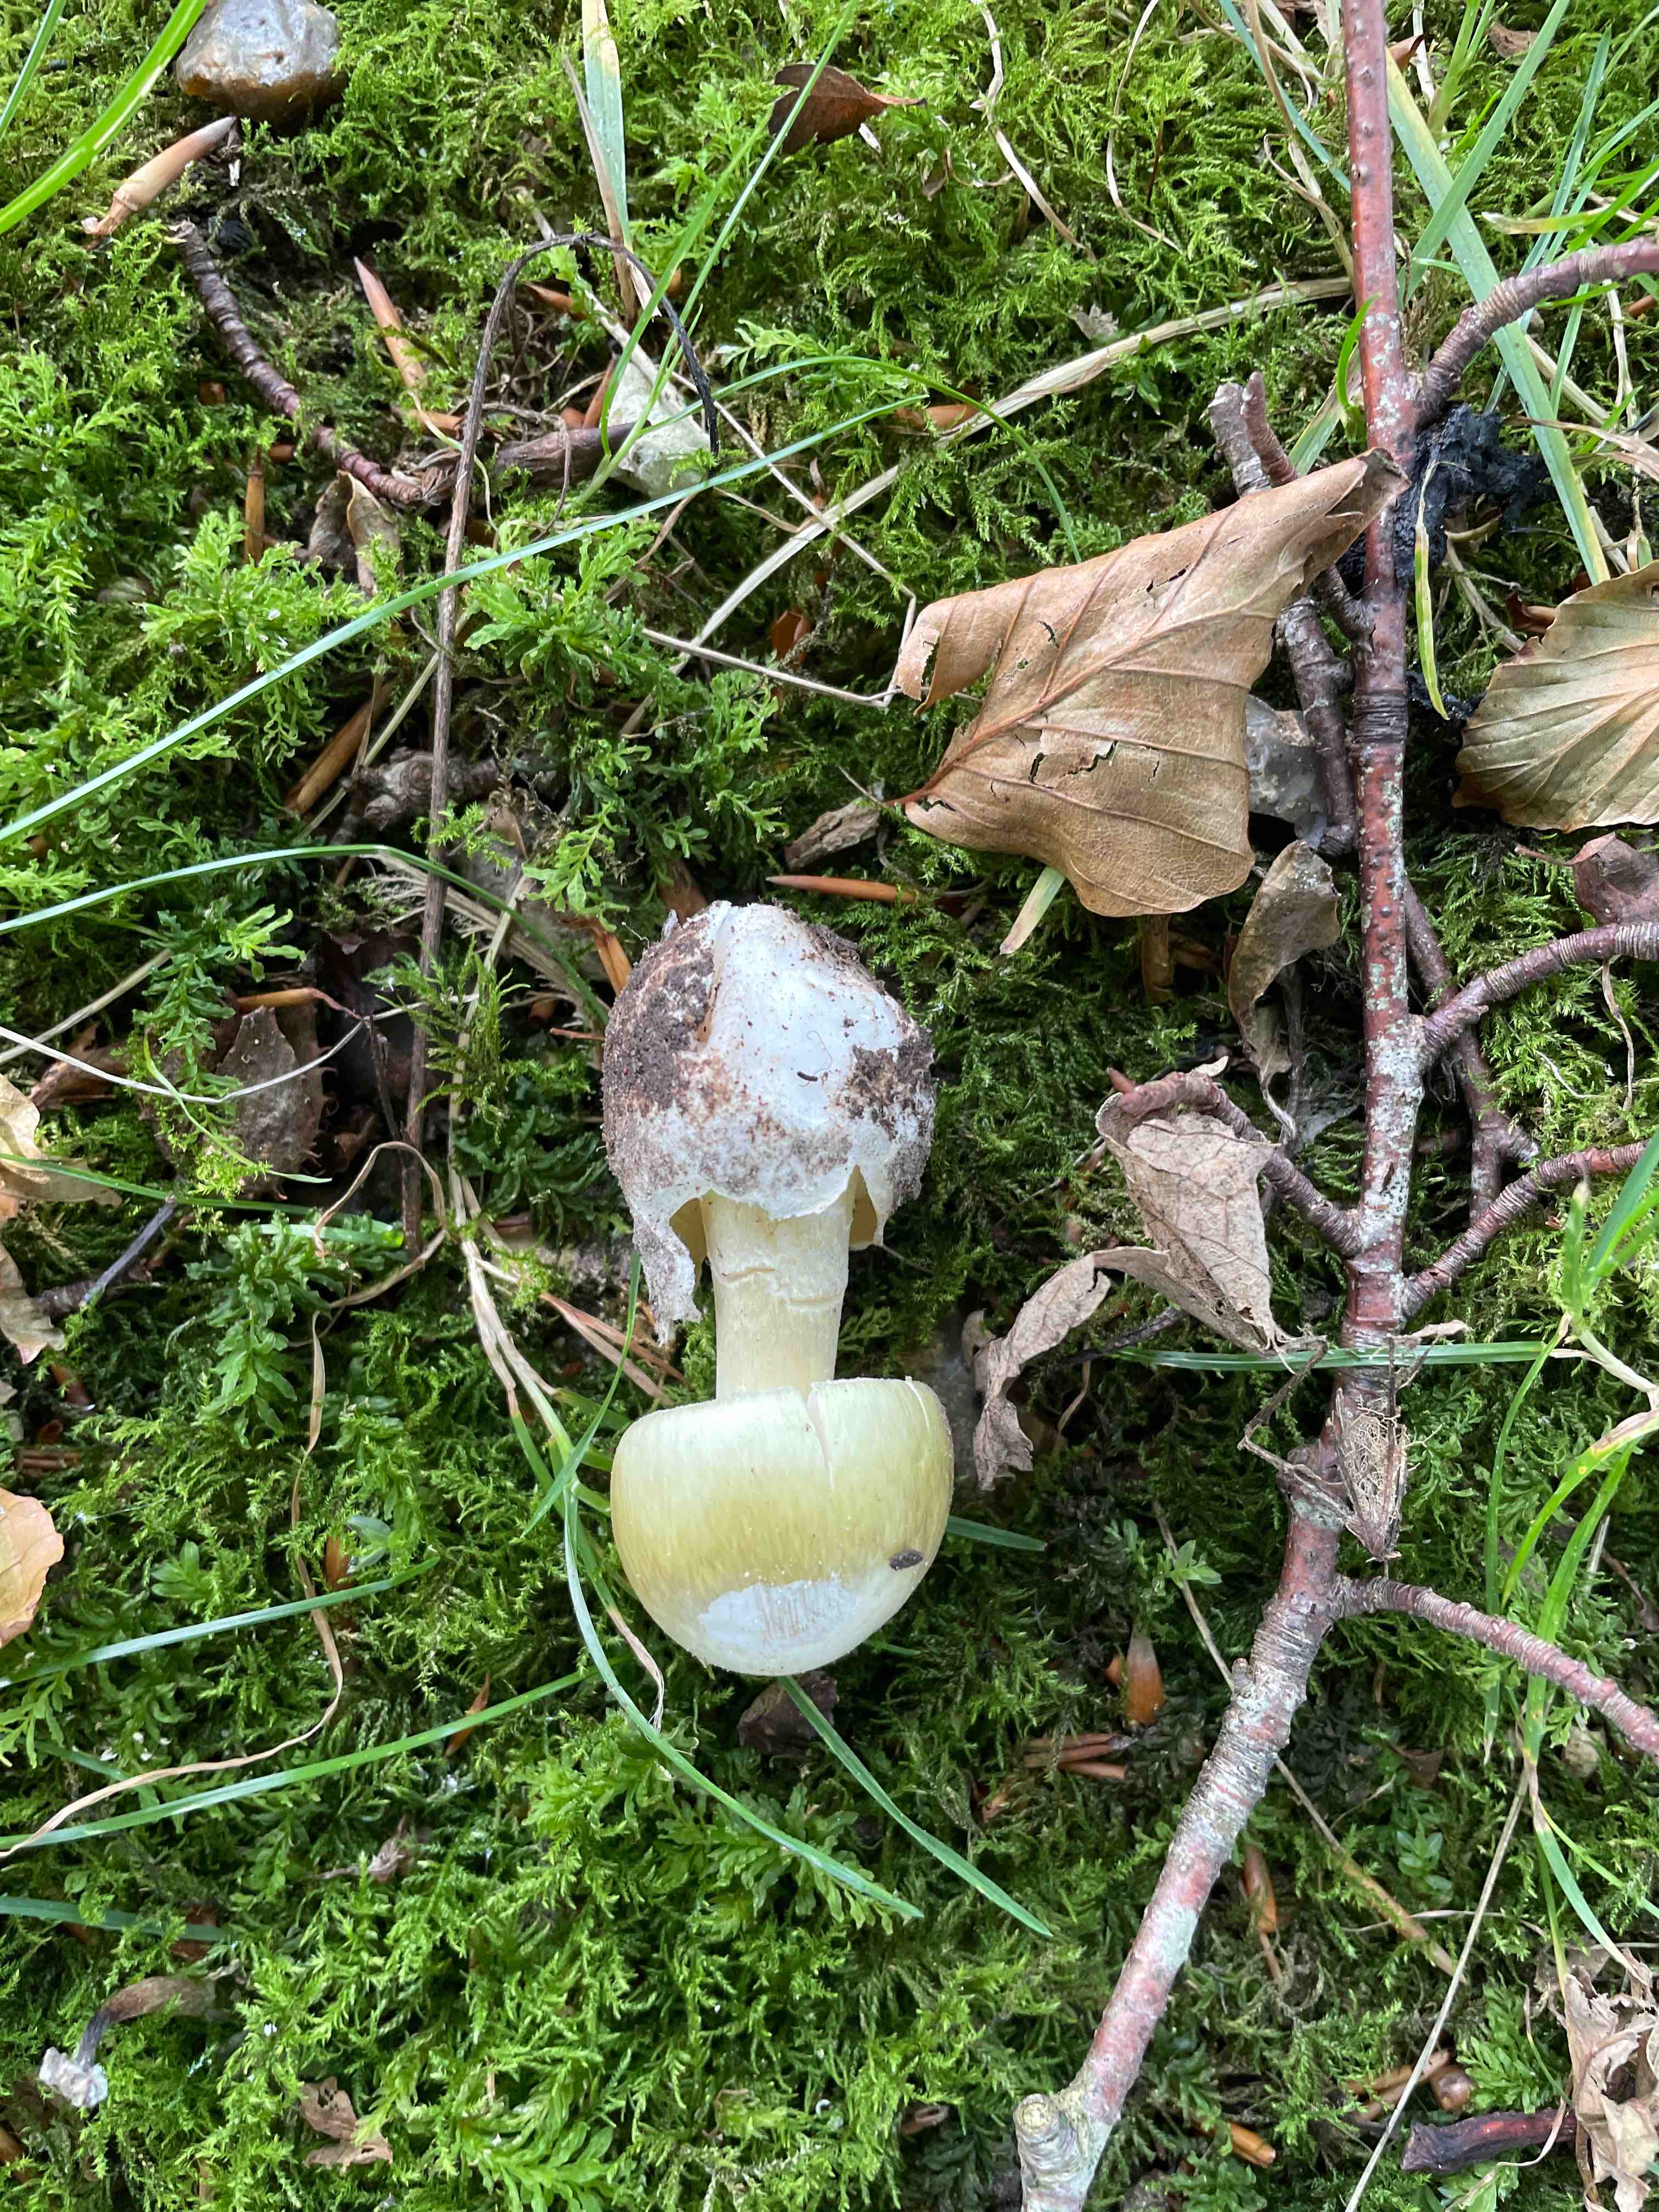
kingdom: Fungi
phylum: Basidiomycota
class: Agaricomycetes
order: Agaricales
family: Amanitaceae
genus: Amanita
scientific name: Amanita phalloides
